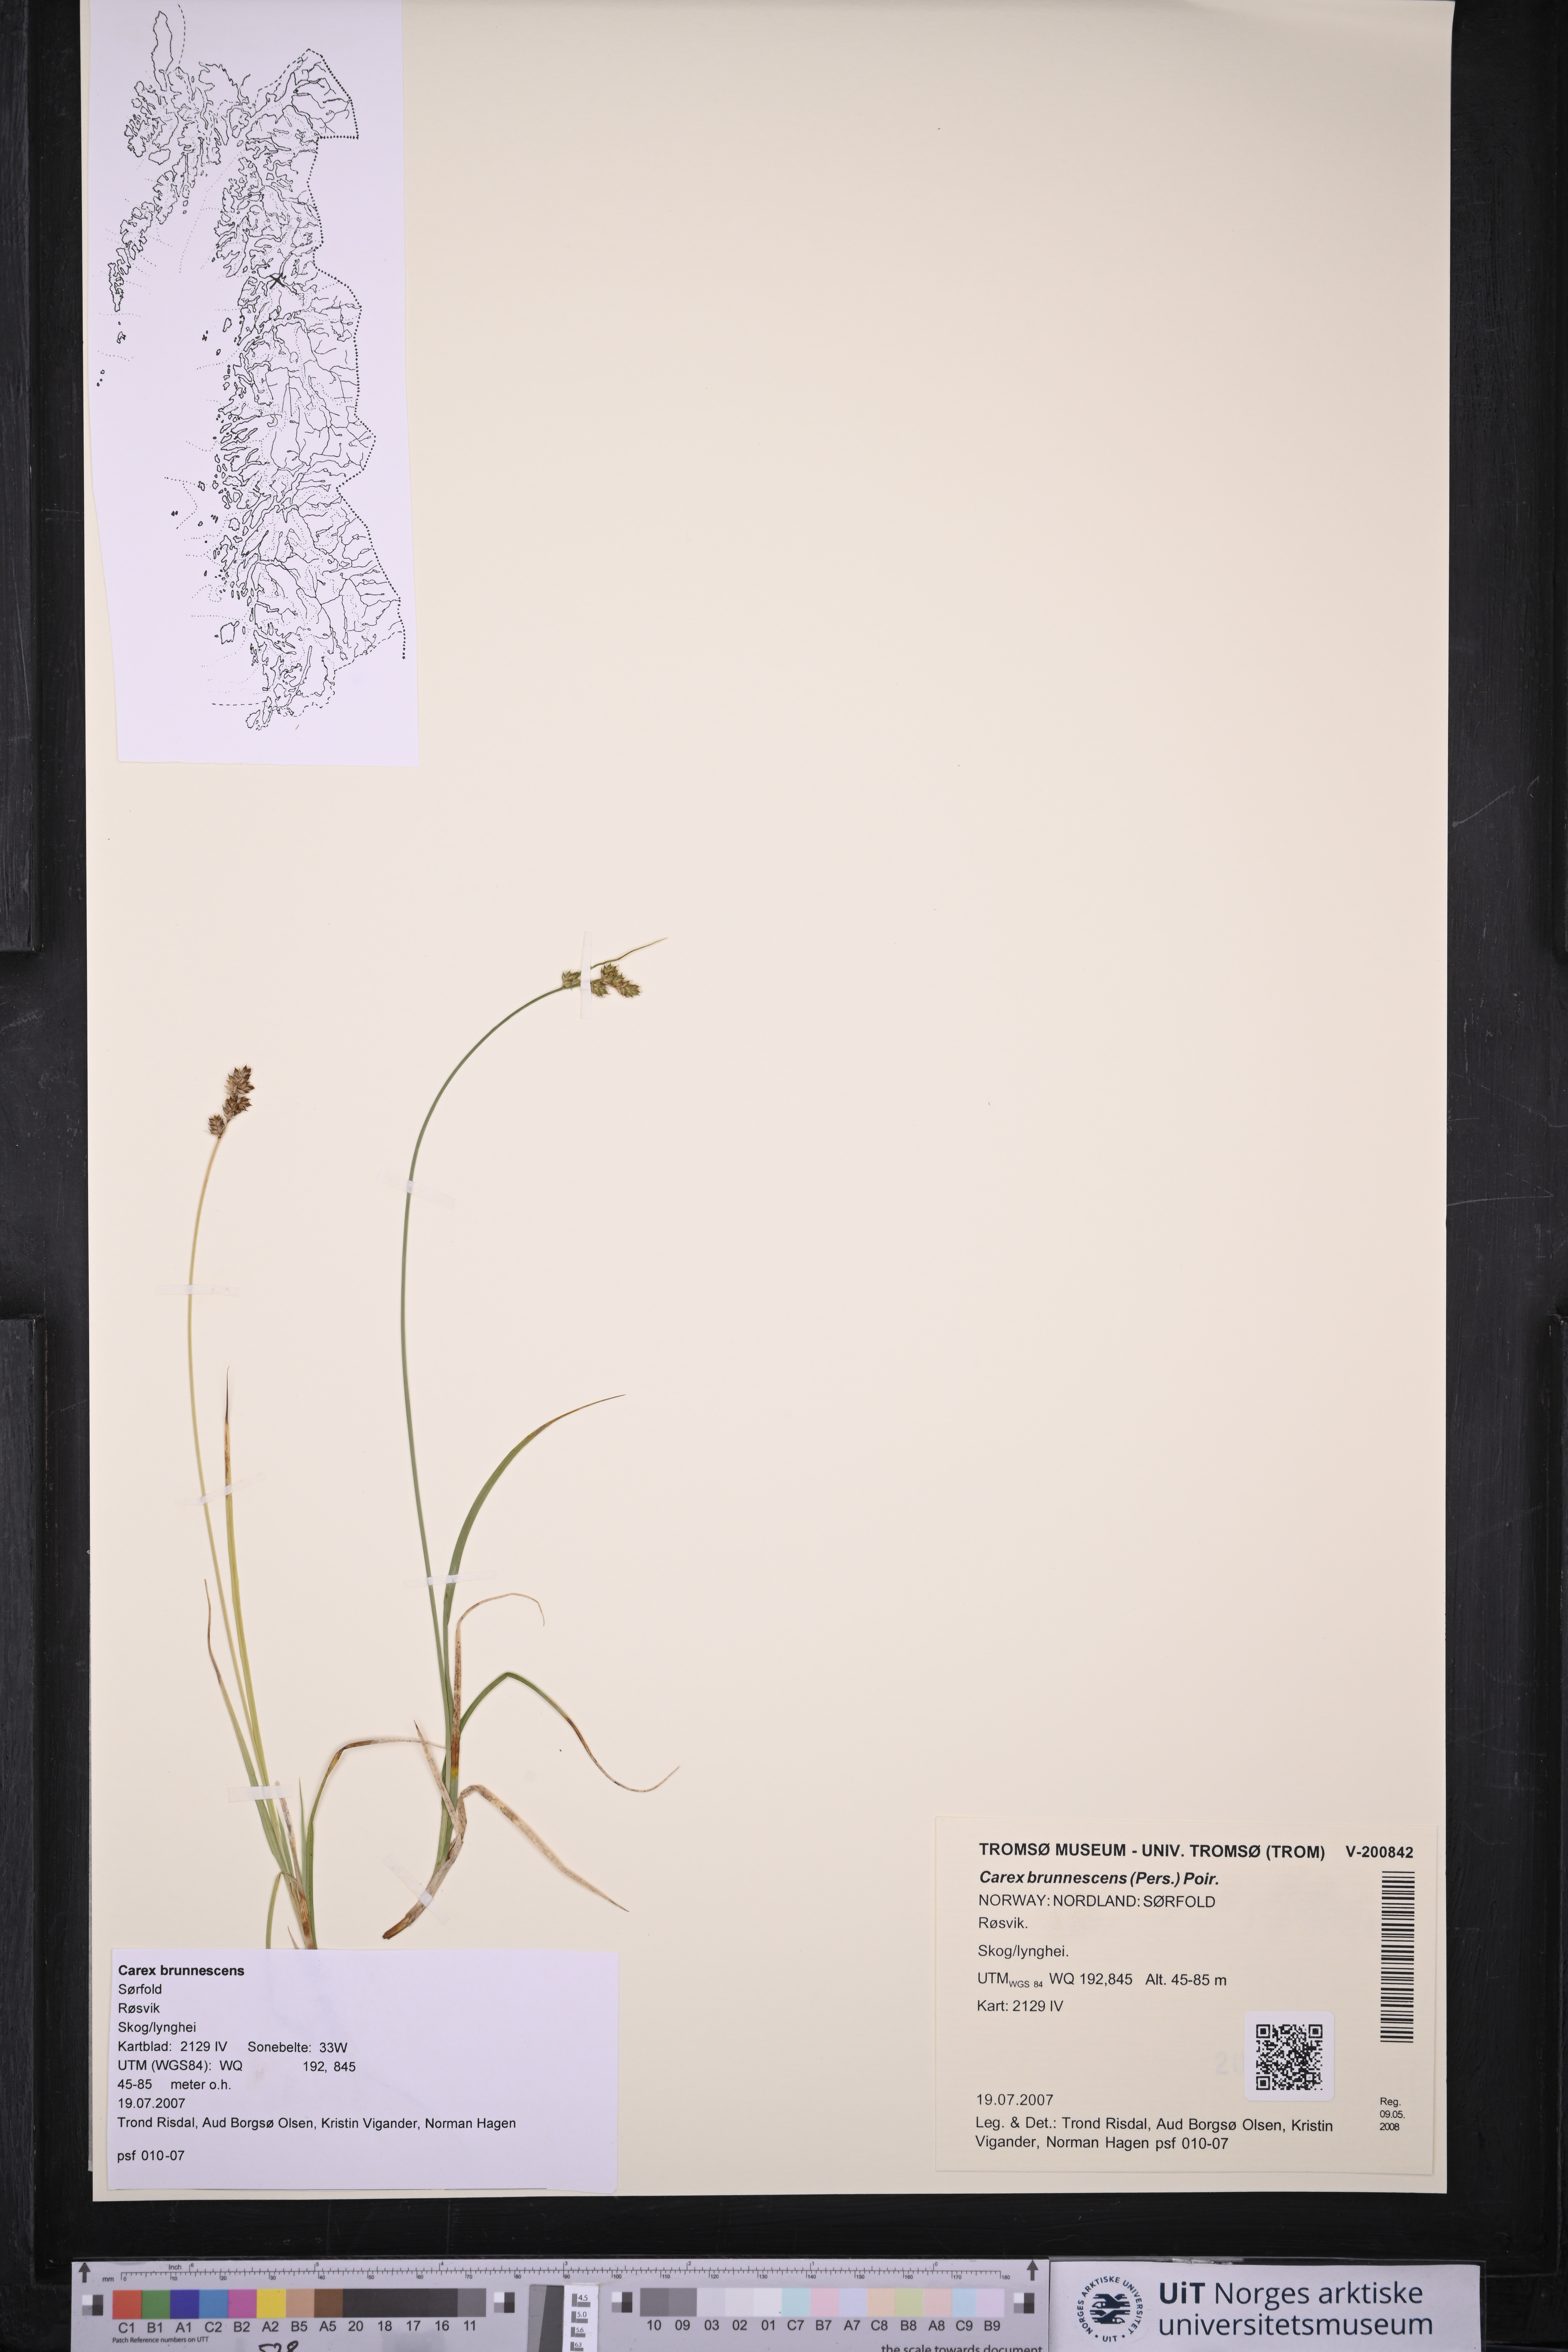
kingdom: Plantae
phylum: Tracheophyta
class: Liliopsida
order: Poales
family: Cyperaceae
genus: Carex
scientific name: Carex brunnescens
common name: Brown sedge
